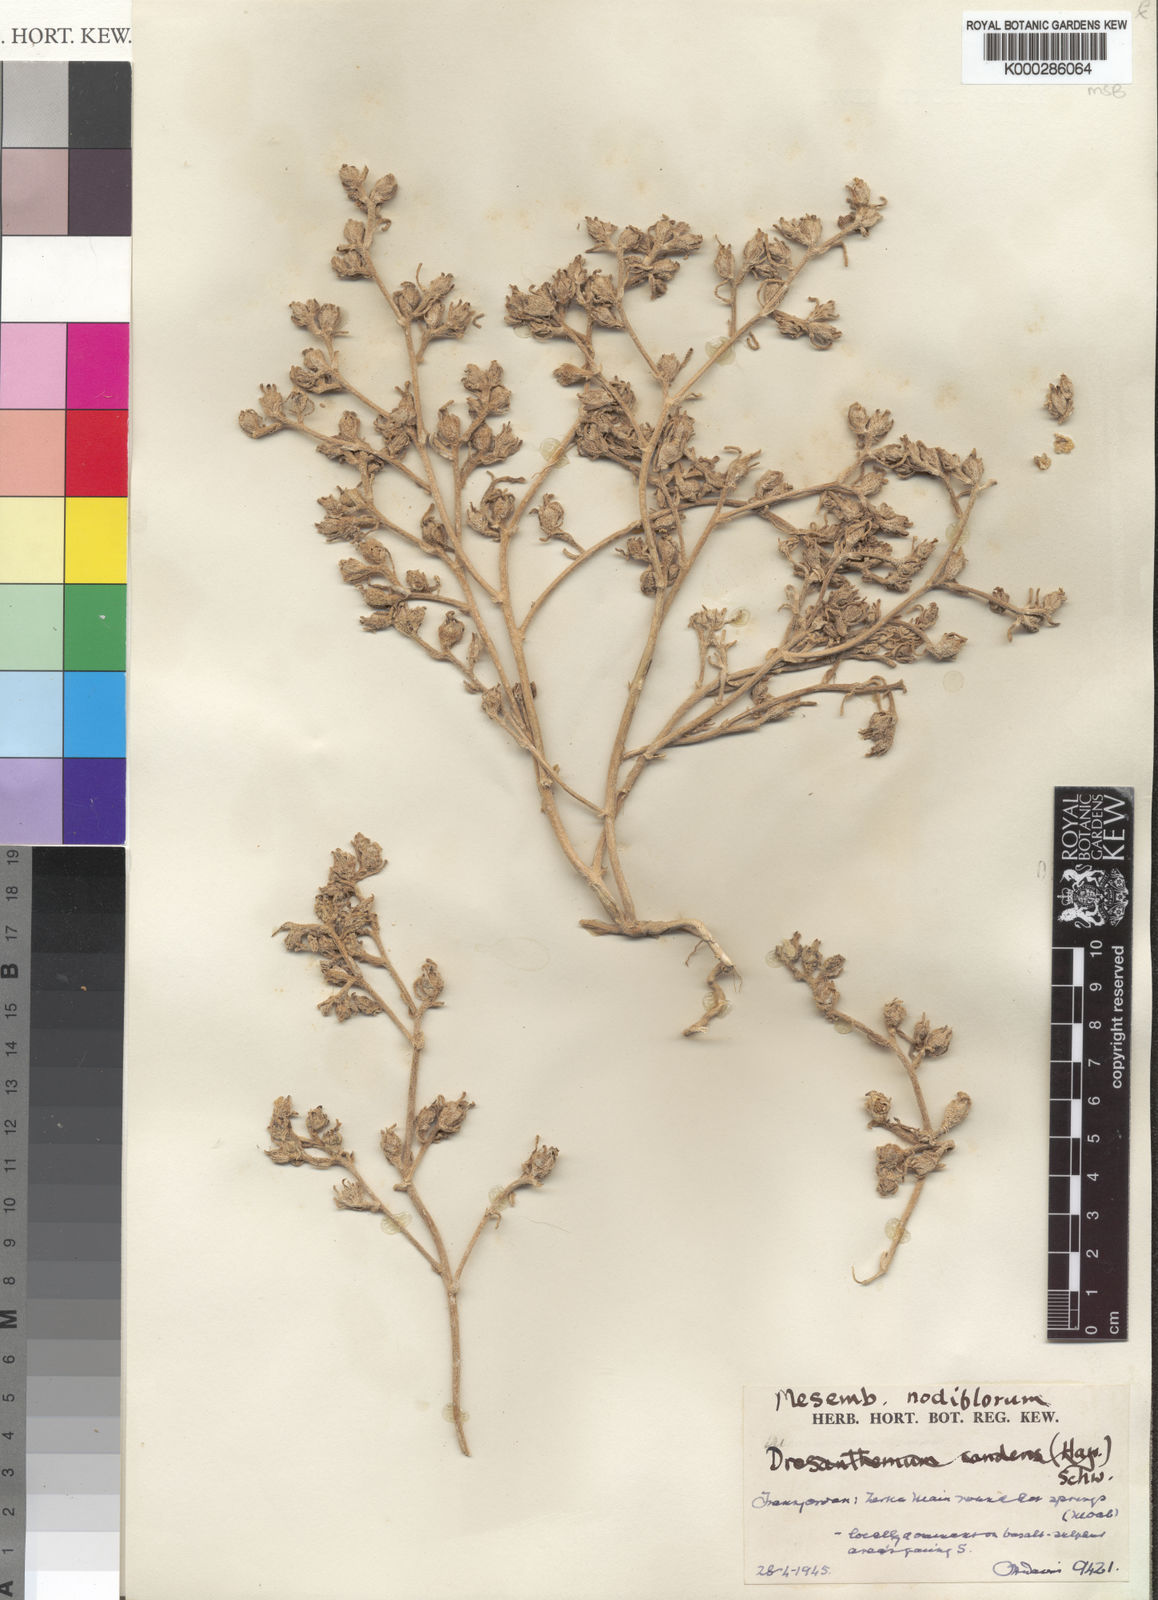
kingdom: Plantae
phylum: Tracheophyta
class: Magnoliopsida
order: Caryophyllales
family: Aizoaceae
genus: Mesembryanthemum
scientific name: Mesembryanthemum nodiflorum
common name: Slenderleaf iceplant
